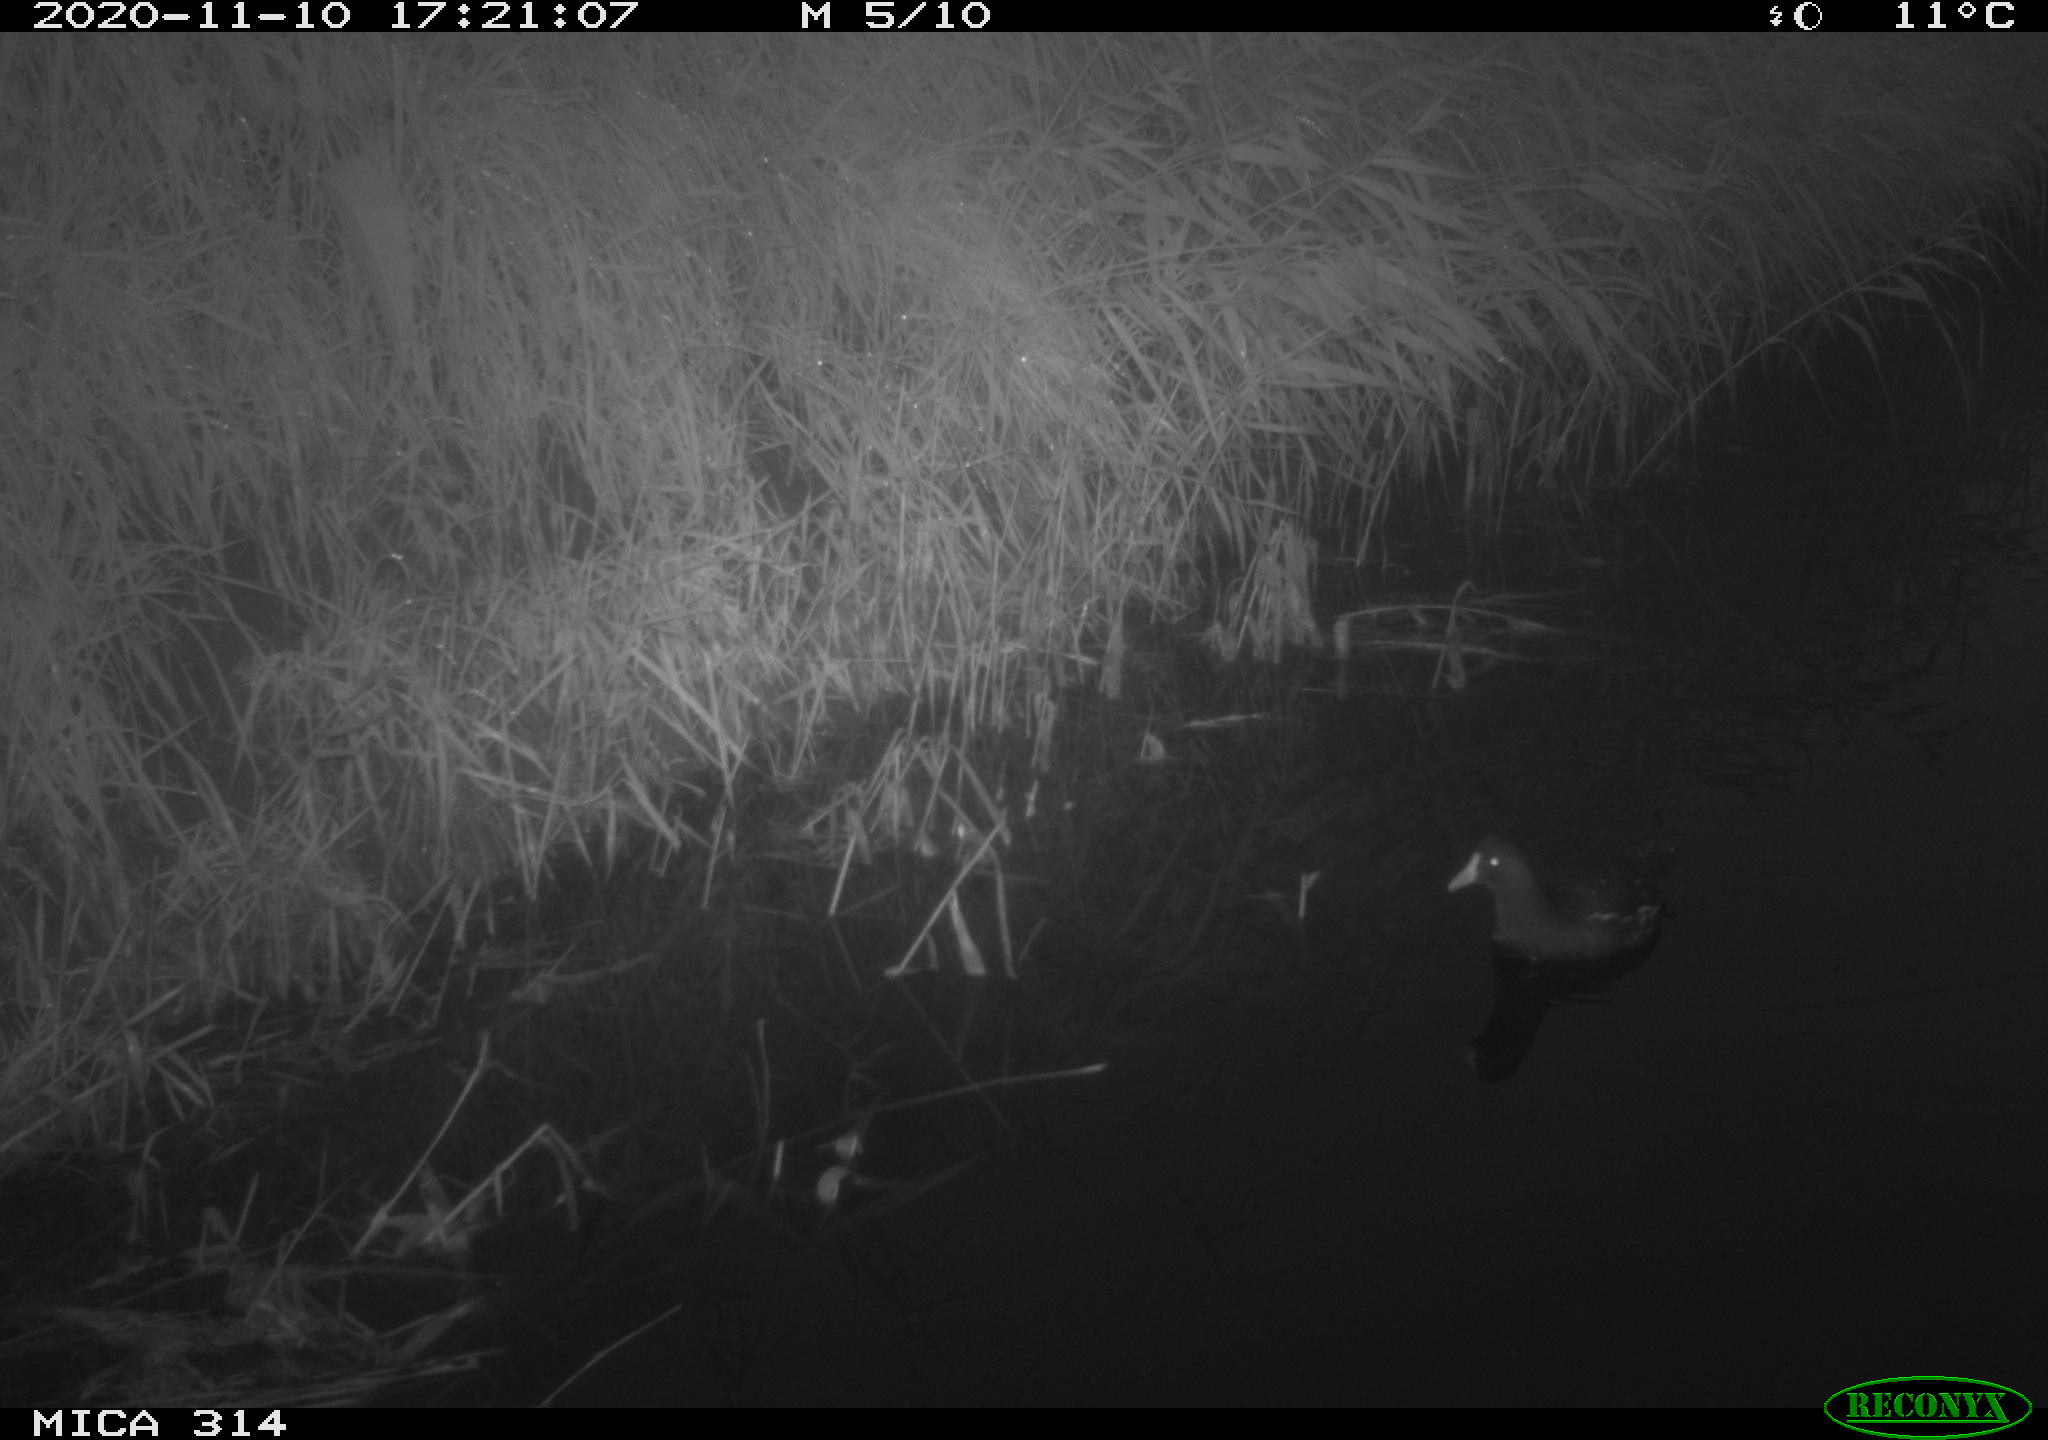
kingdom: Animalia
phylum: Chordata
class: Aves
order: Gruiformes
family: Rallidae
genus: Gallinula
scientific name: Gallinula chloropus
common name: Common moorhen
